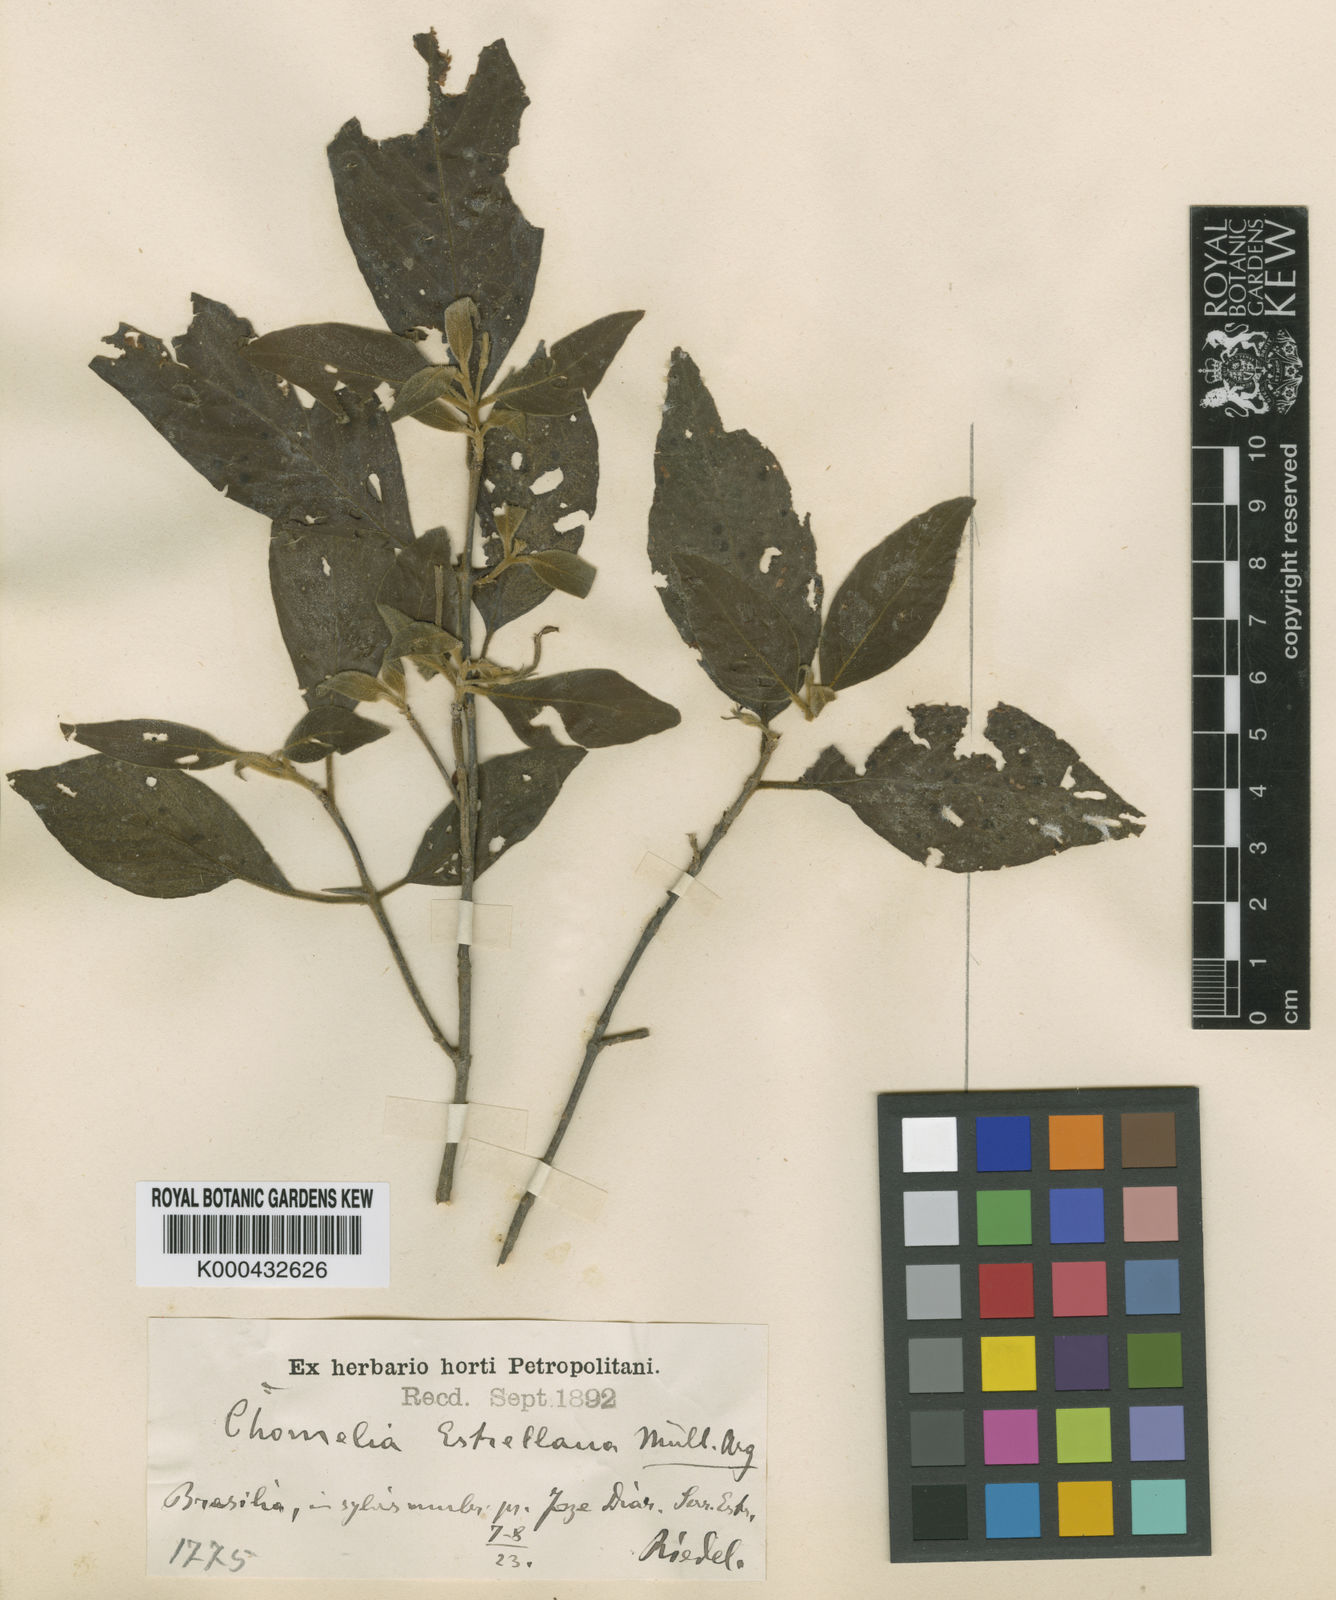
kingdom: Plantae
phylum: Tracheophyta
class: Magnoliopsida
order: Gentianales
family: Rubiaceae
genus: Chomelia
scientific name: Chomelia
